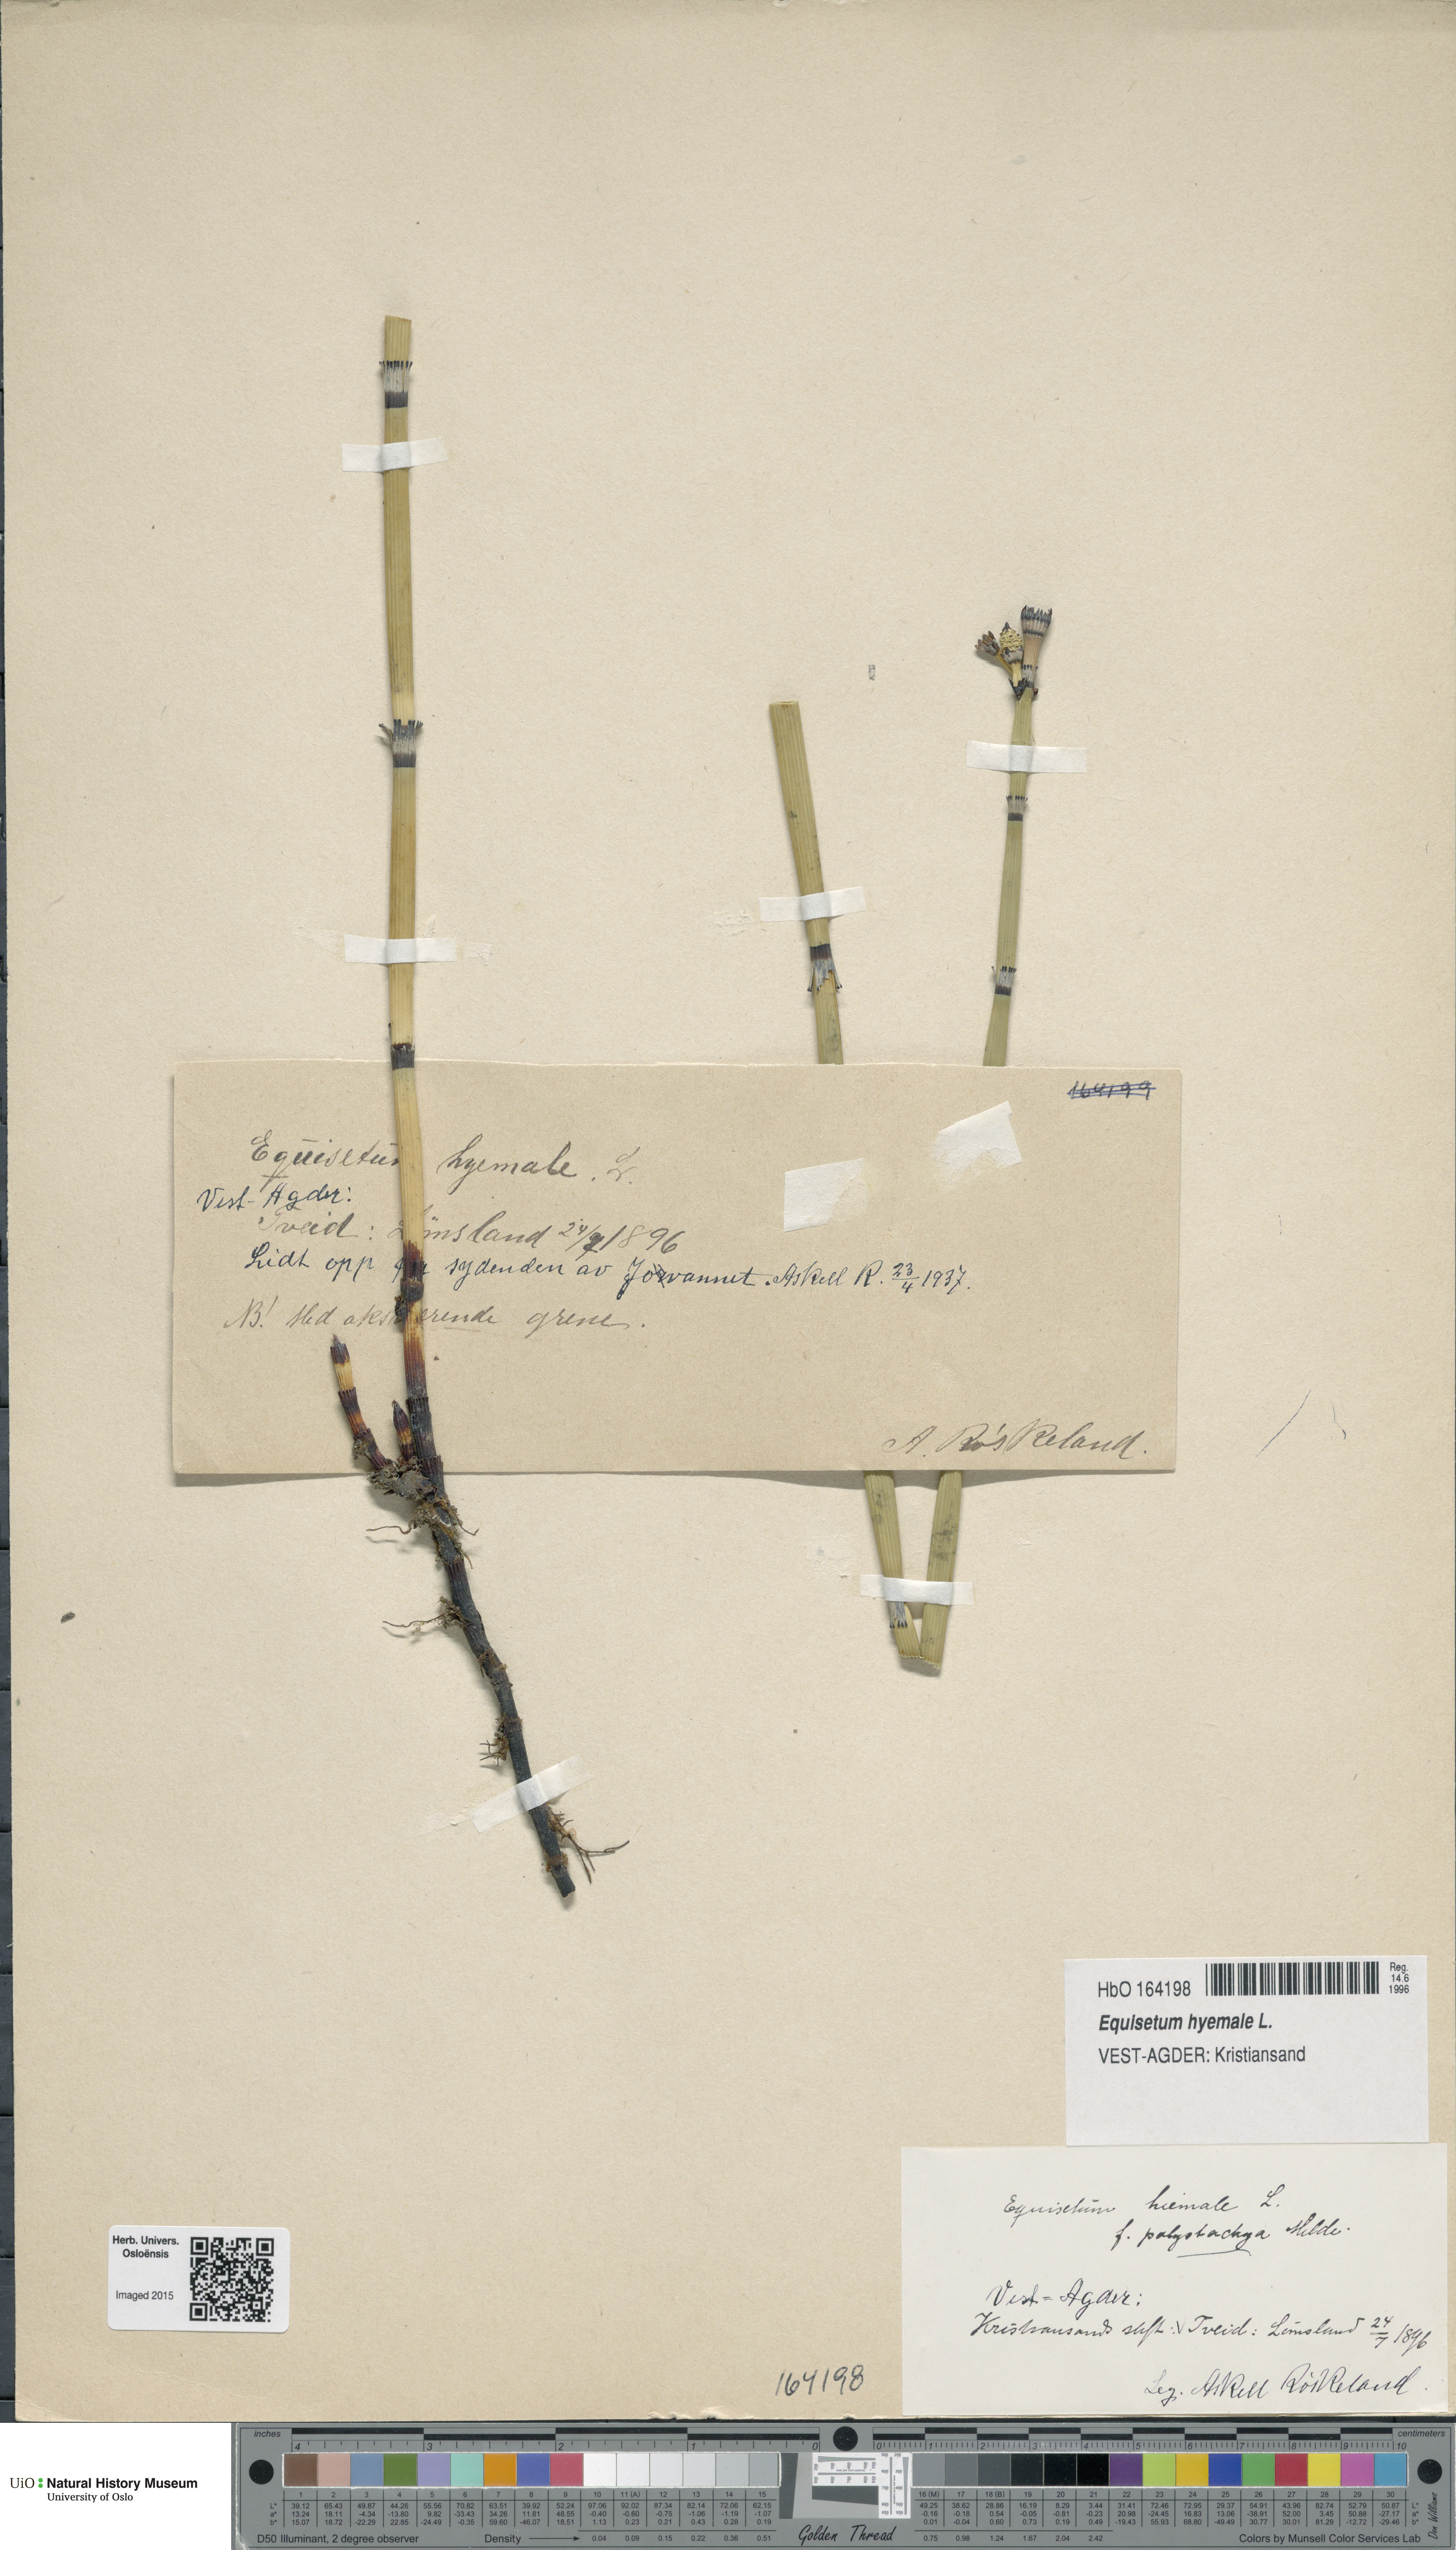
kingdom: Plantae
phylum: Tracheophyta
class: Polypodiopsida
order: Equisetales
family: Equisetaceae
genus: Equisetum
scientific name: Equisetum hyemale
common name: Rough horsetail
